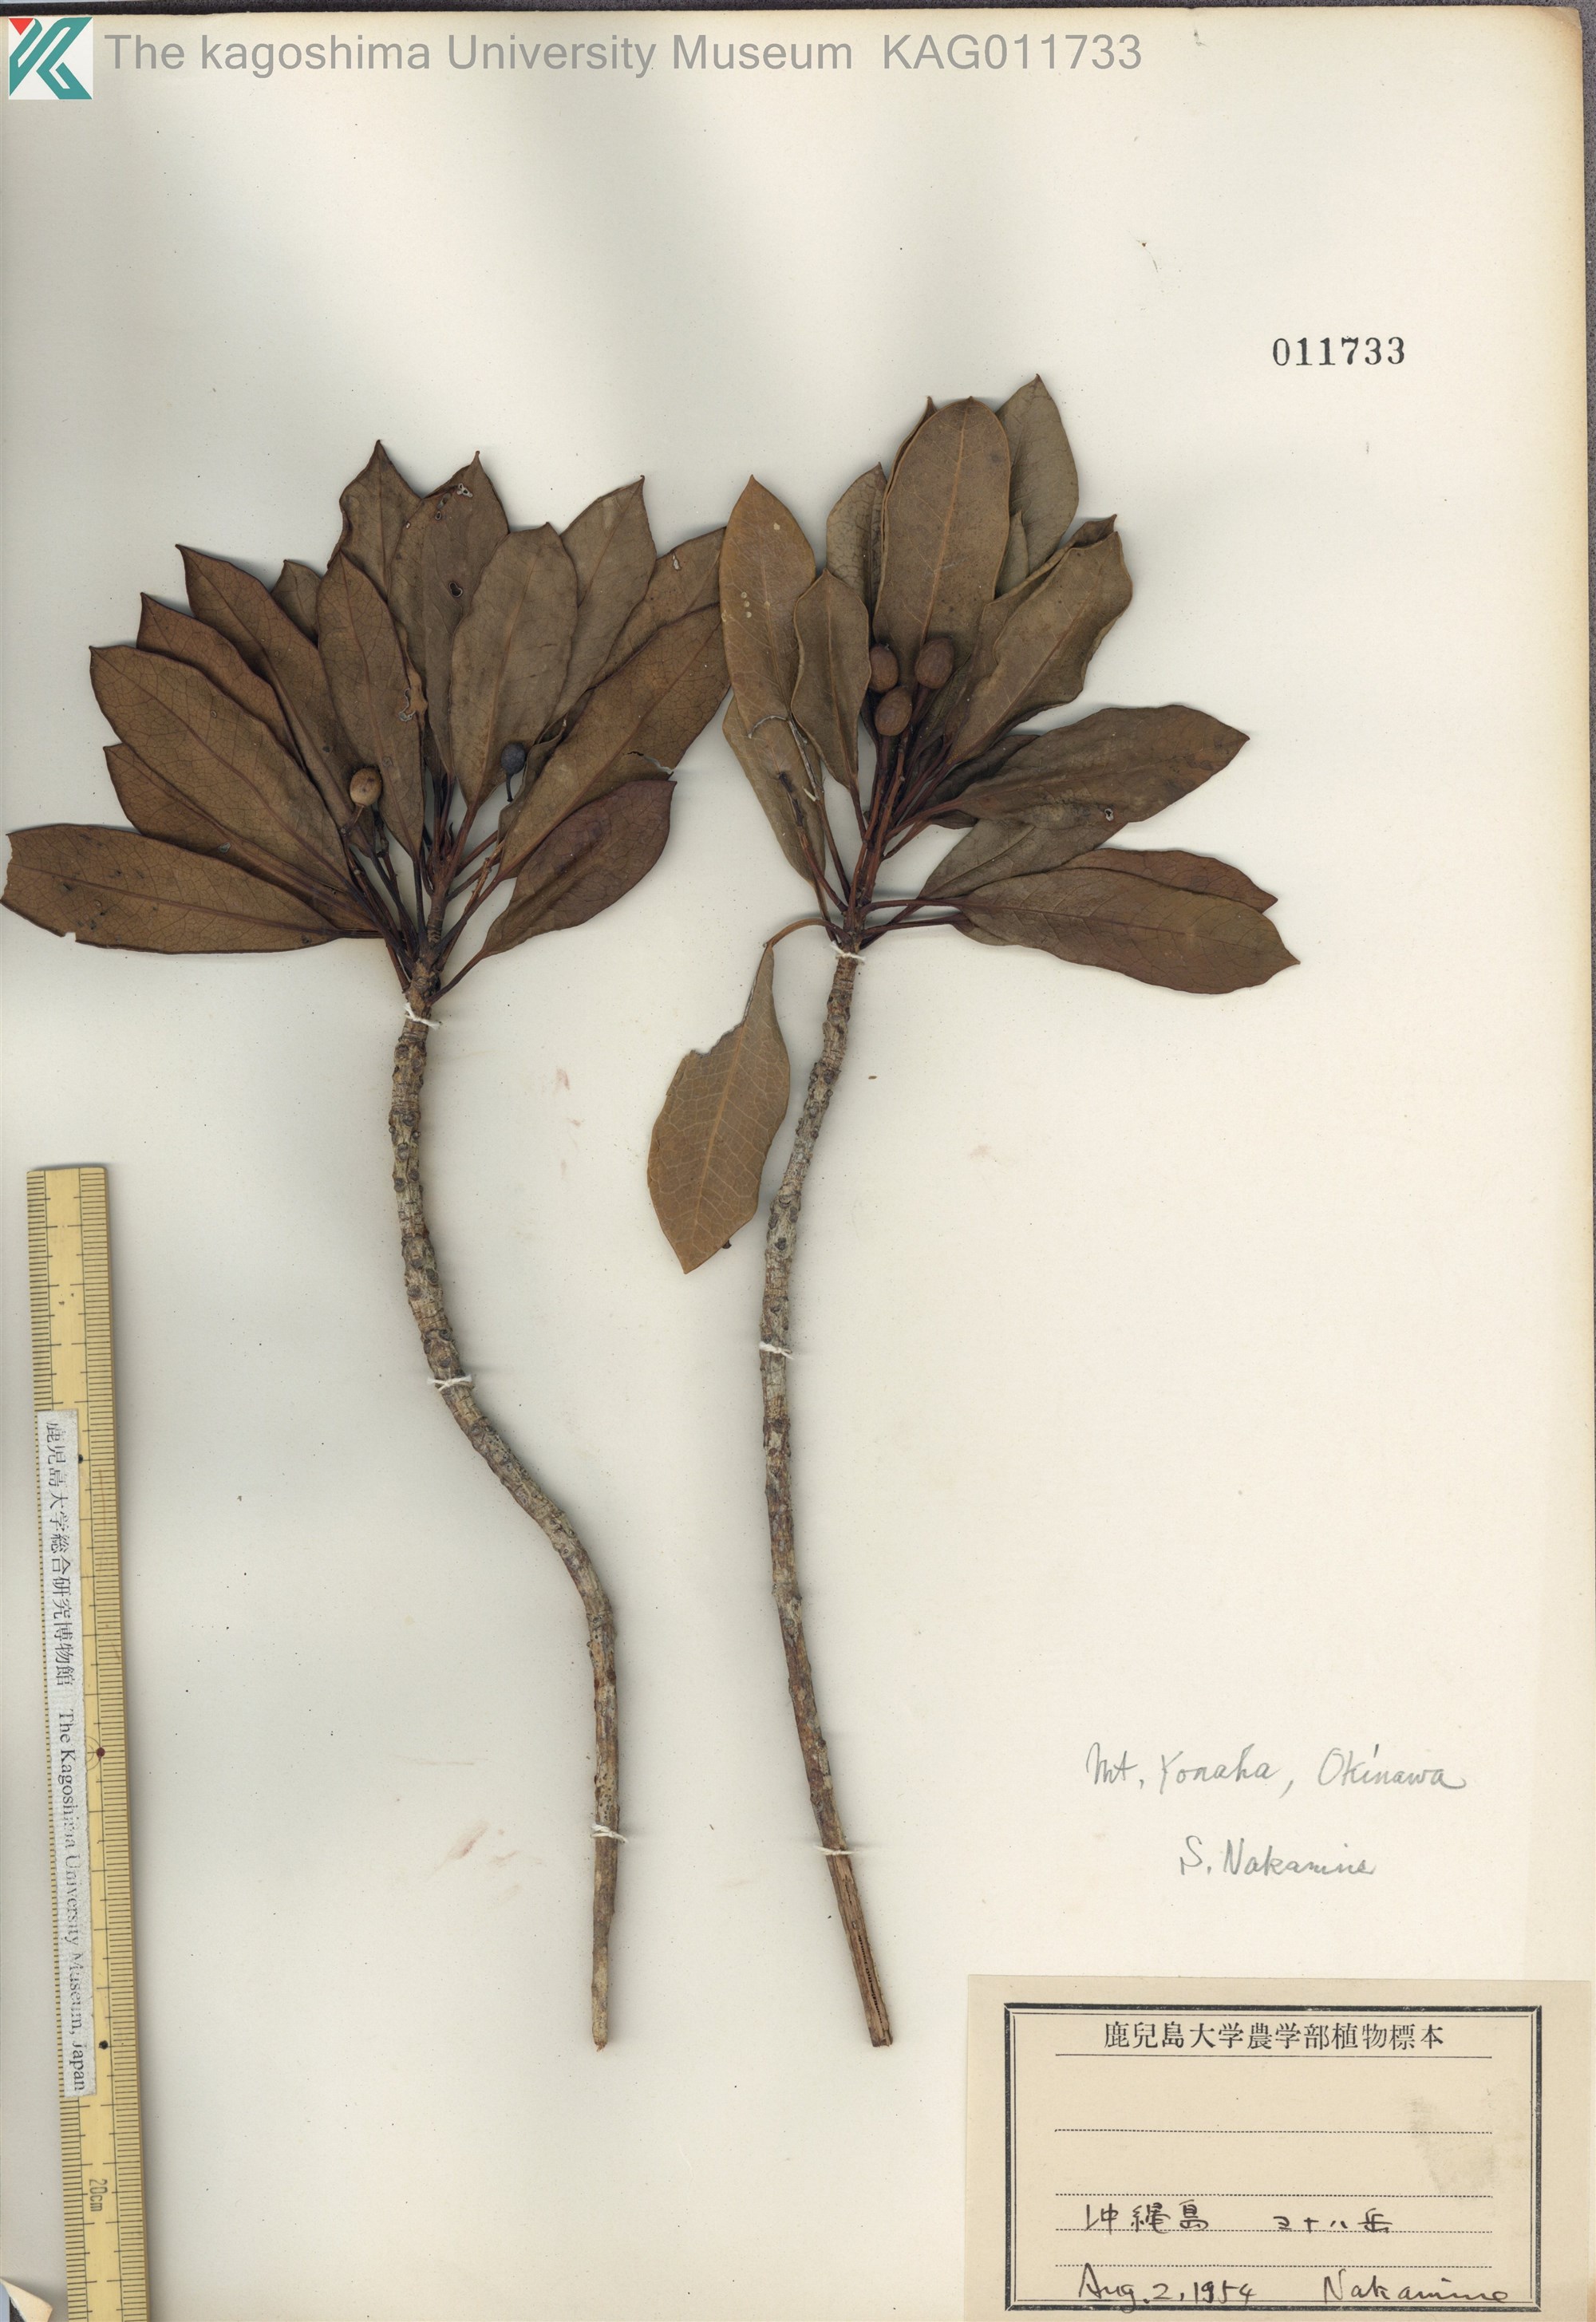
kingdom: Plantae
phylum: Tracheophyta
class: Magnoliopsida
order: Saxifragales
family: Daphniphyllaceae
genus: Daphniphyllum
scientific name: Daphniphyllum teijsmannii
